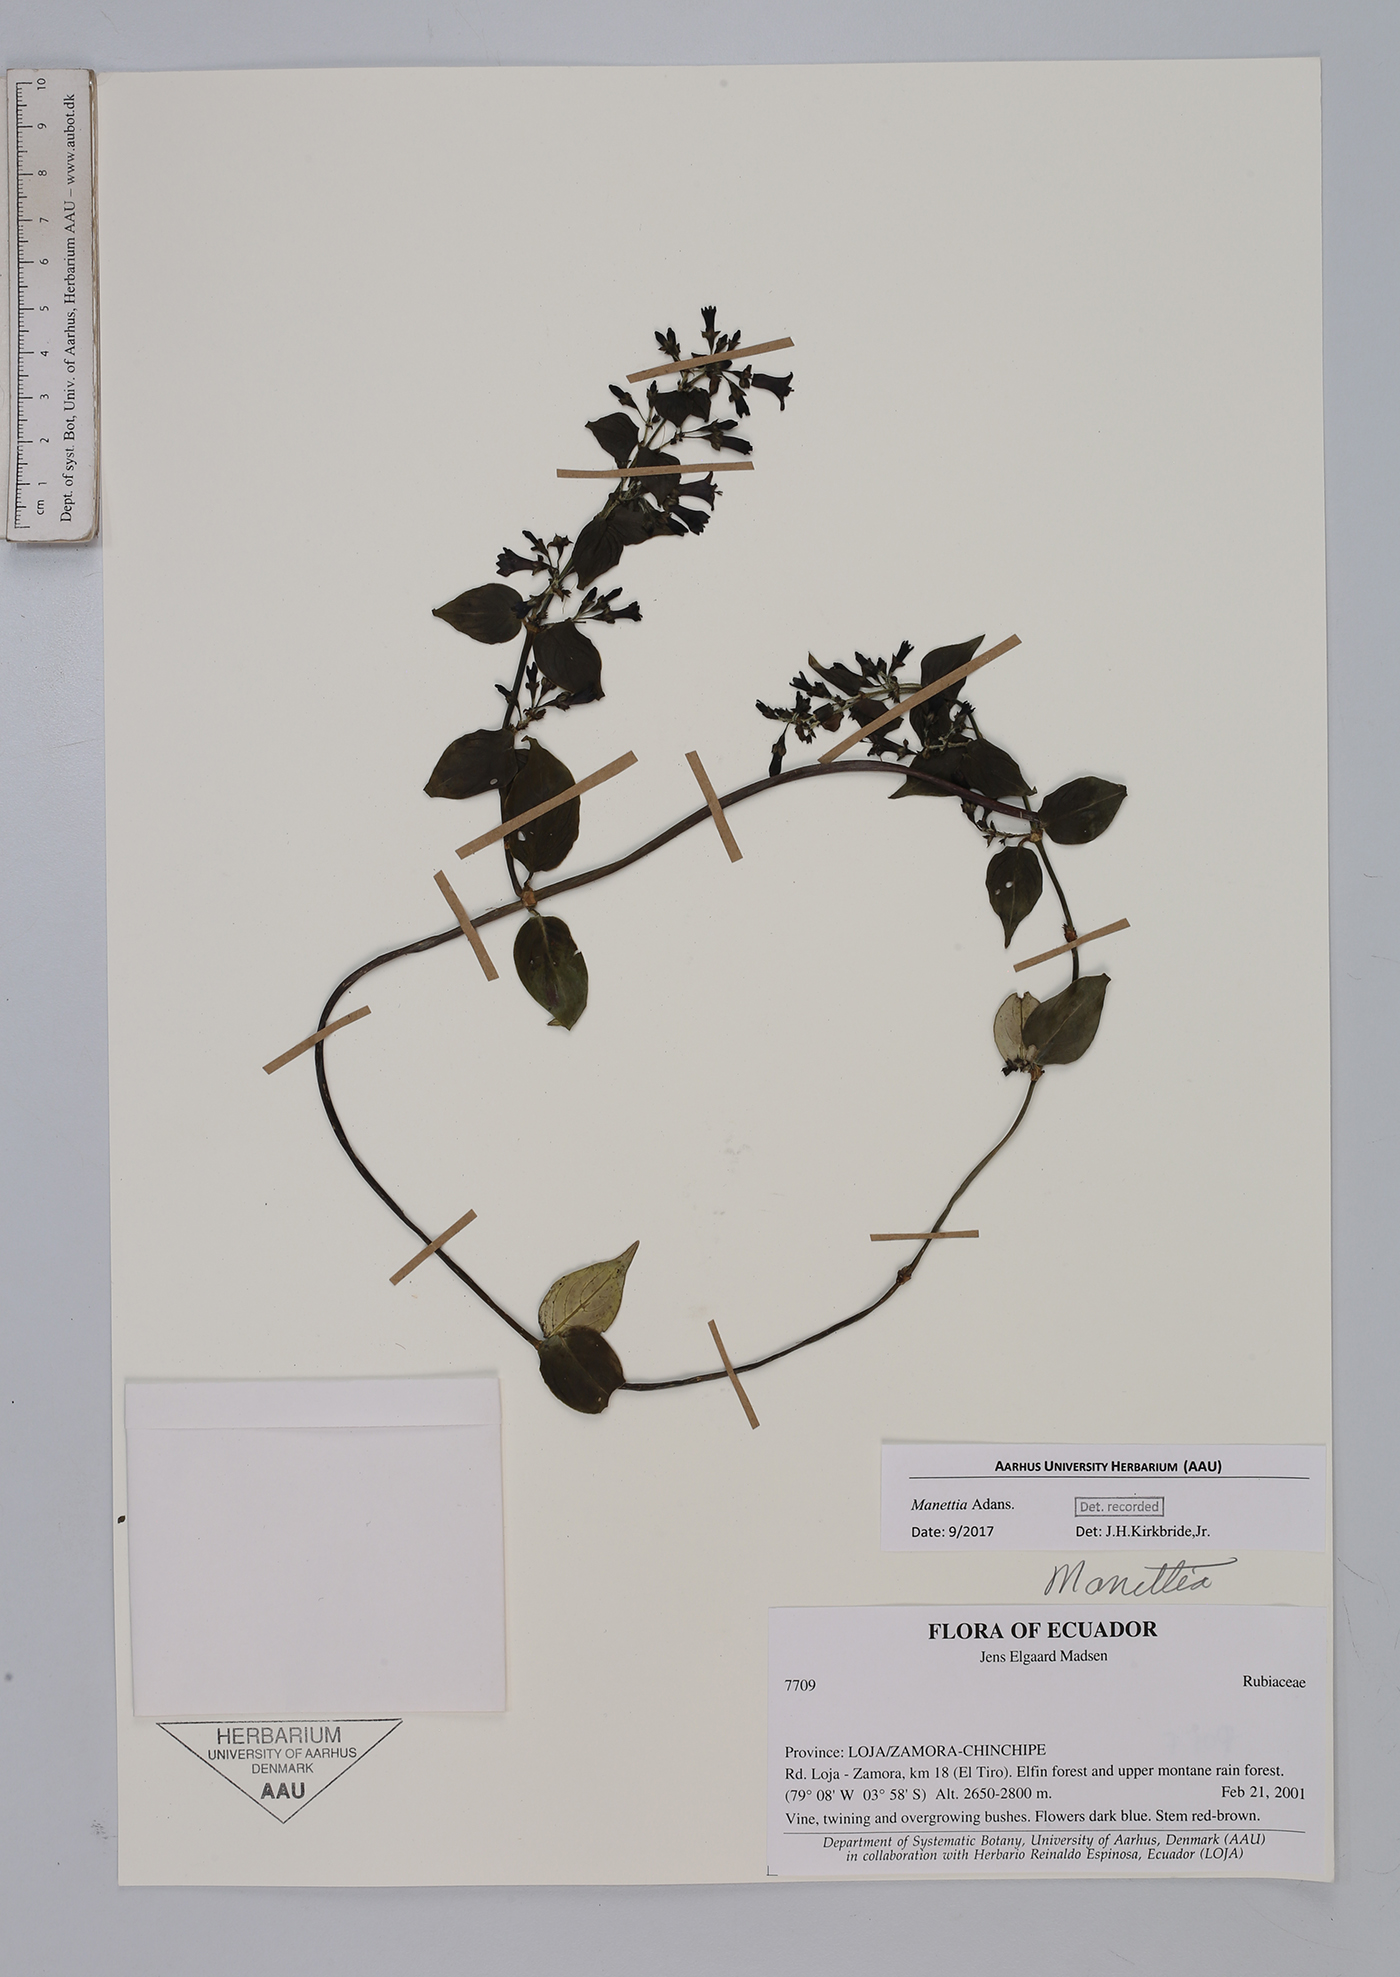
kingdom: Plantae
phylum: Tracheophyta
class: Magnoliopsida
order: Gentianales
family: Rubiaceae
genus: Manettia
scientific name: Manettia
